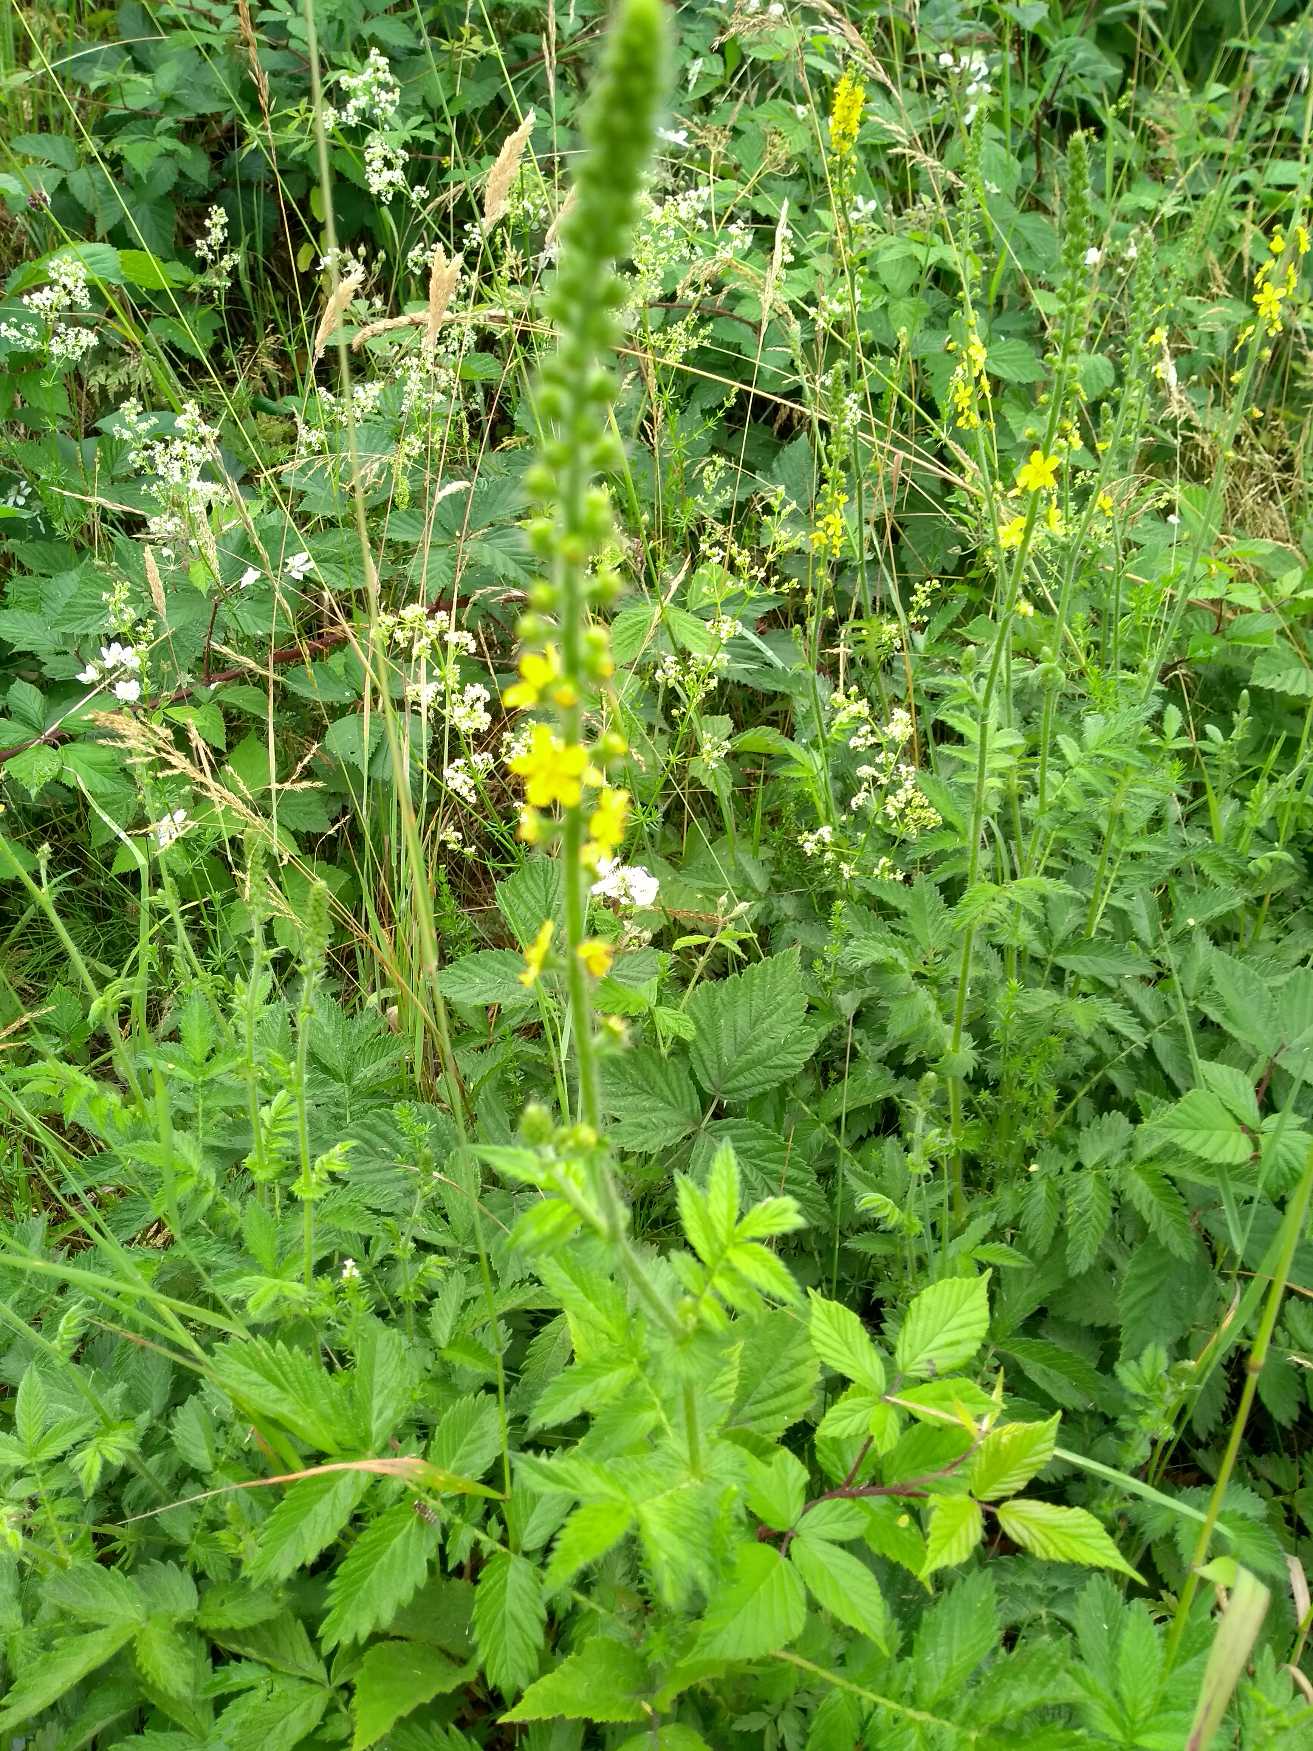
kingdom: Plantae
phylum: Tracheophyta
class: Magnoliopsida
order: Rosales
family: Rosaceae
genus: Agrimonia
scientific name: Agrimonia eupatoria
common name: Almindelig agermåne
